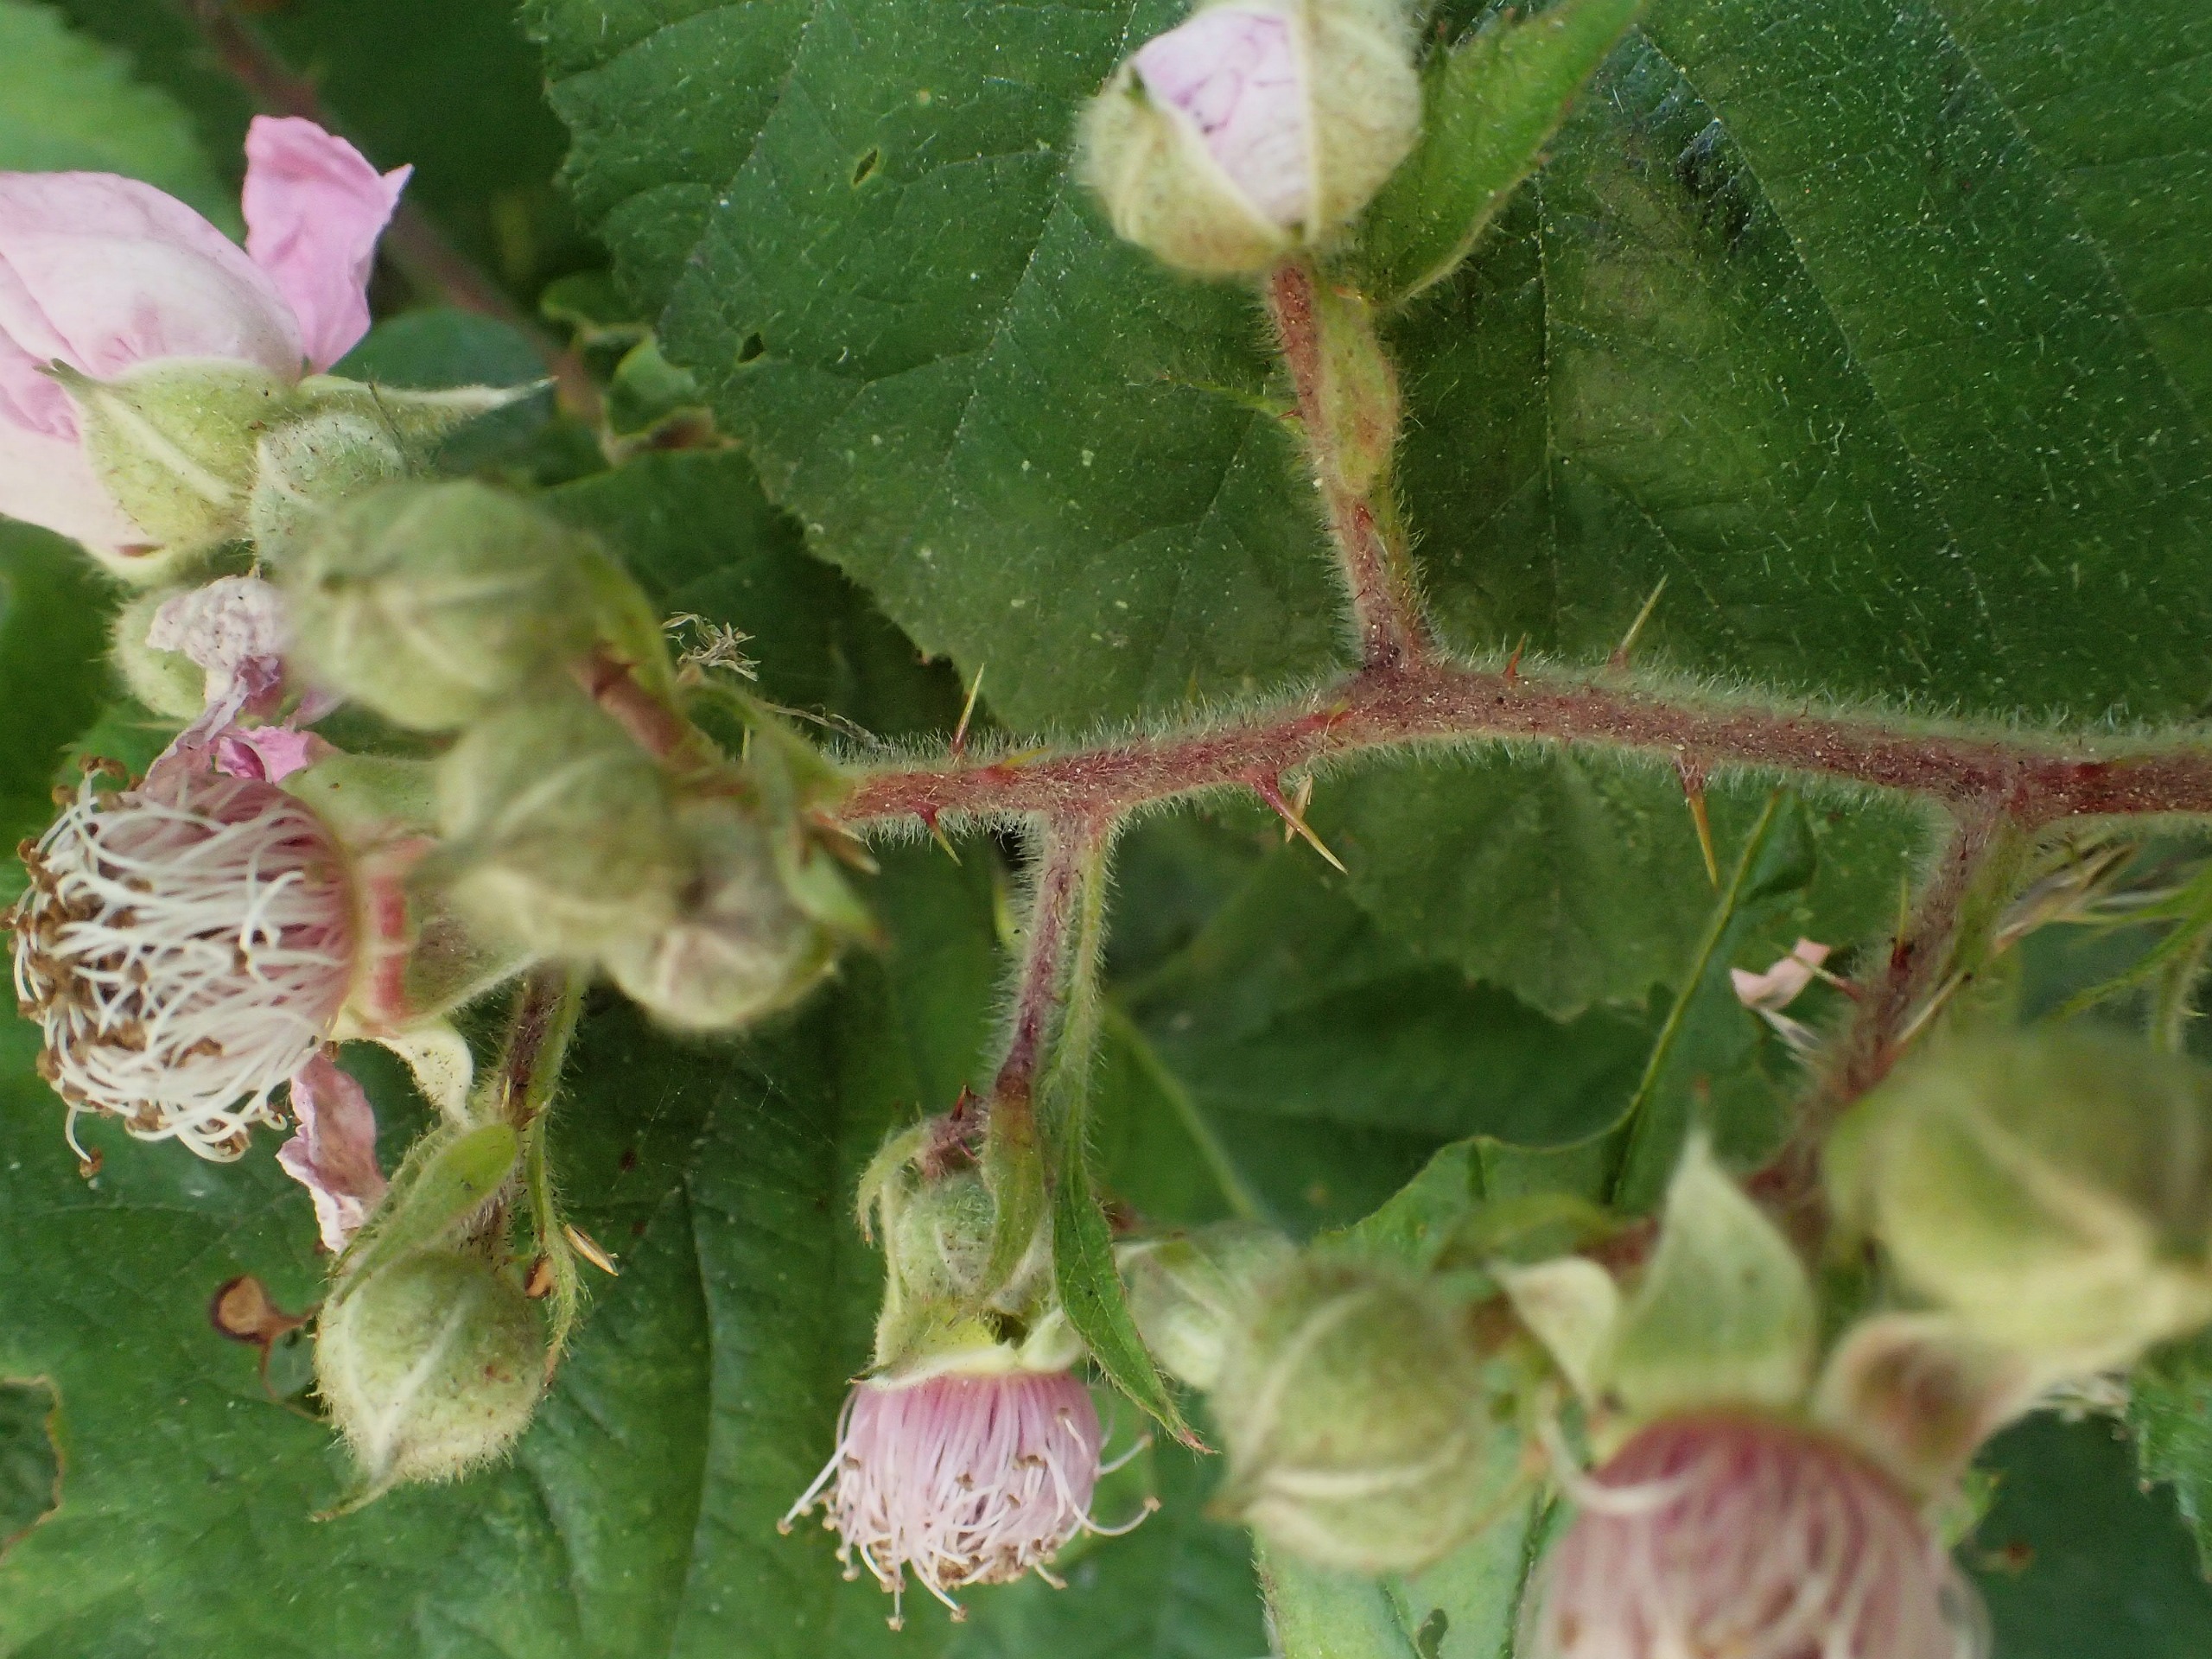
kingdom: Plantae
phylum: Tracheophyta
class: Magnoliopsida
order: Rosales
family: Rosaceae
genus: Rubus
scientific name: Rubus vestitus
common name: Rundbladet brombær
